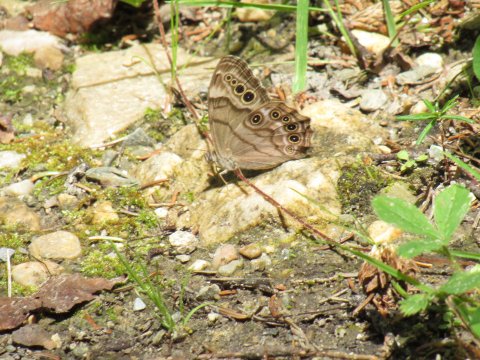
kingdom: Animalia
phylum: Arthropoda
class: Insecta
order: Lepidoptera
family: Nymphalidae
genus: Lethe
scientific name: Lethe anthedon
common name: Northern Pearly-Eye
